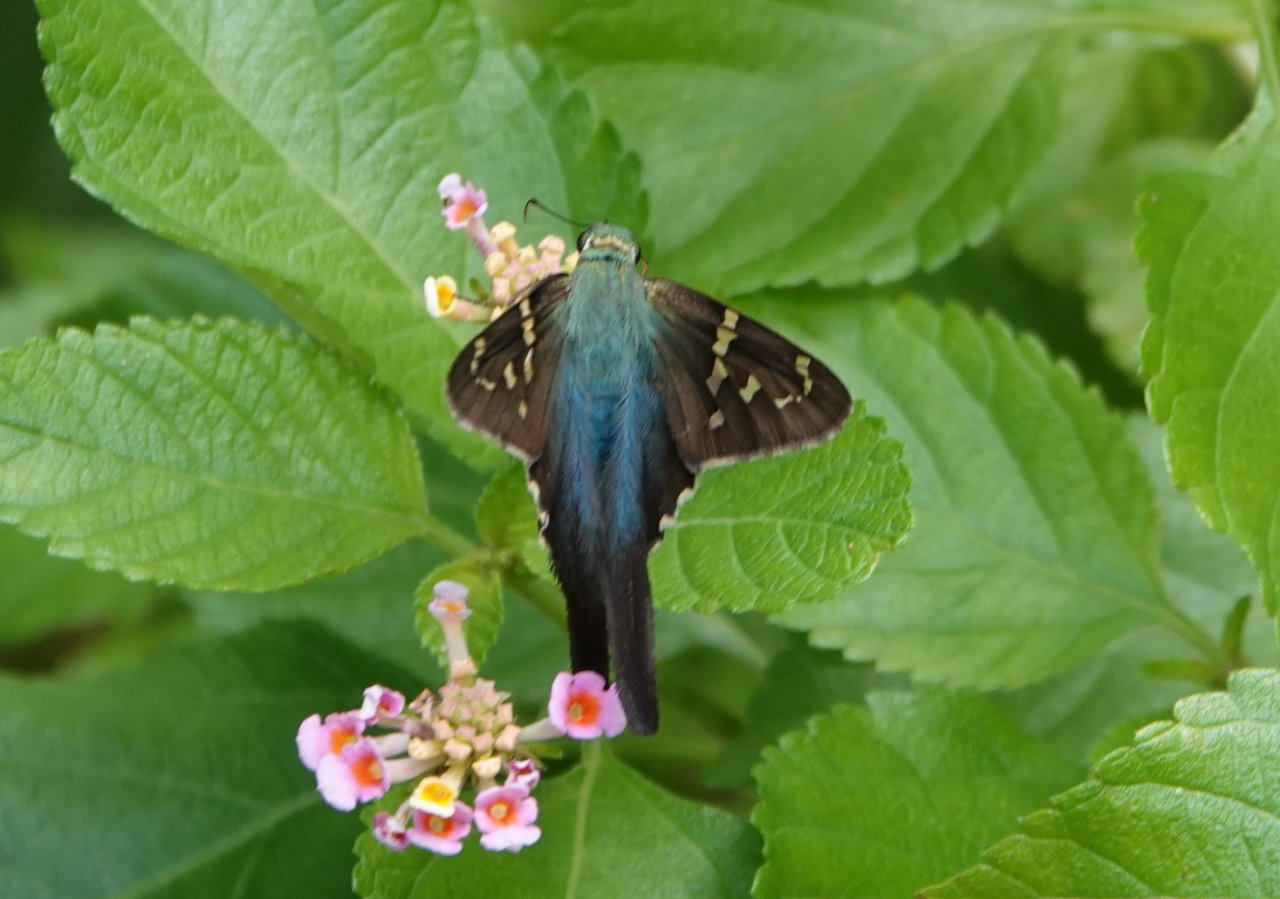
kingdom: Animalia
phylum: Arthropoda
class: Insecta
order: Lepidoptera
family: Hesperiidae
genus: Urbanus
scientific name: Urbanus proteus
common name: Long-tailed Skipper
